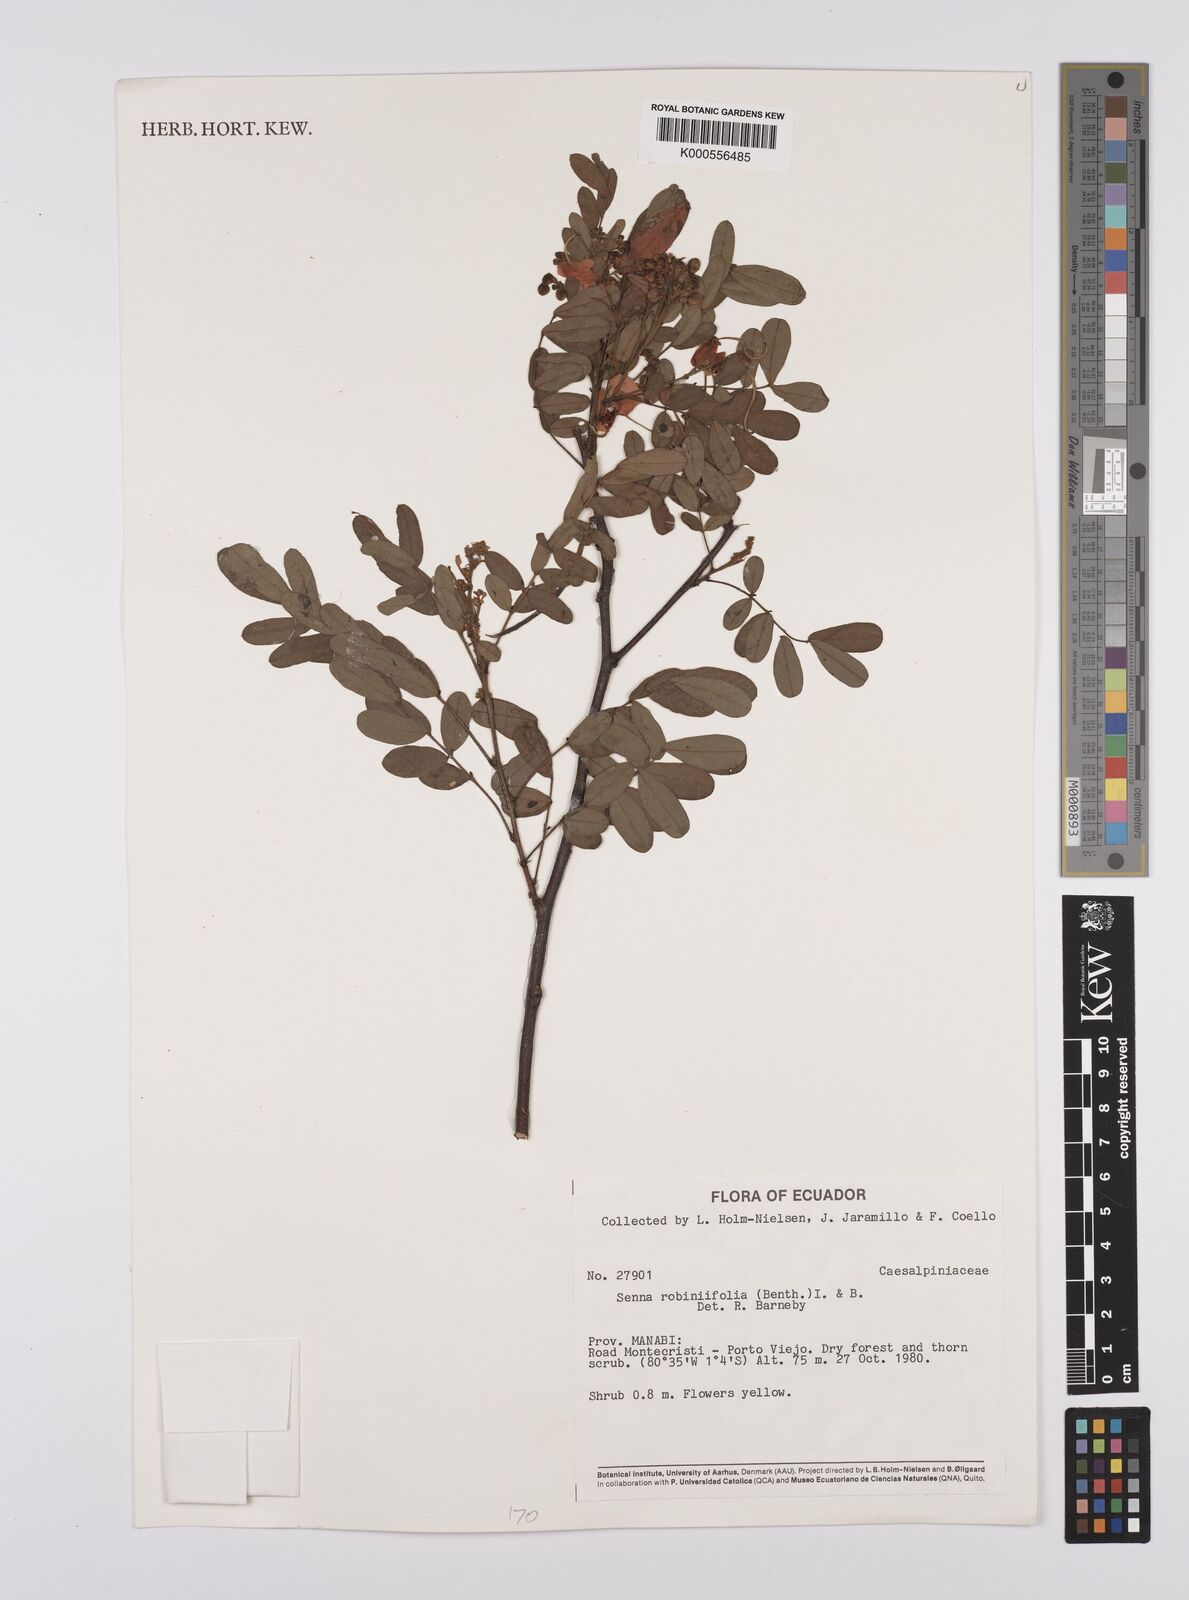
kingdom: Plantae
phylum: Tracheophyta
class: Magnoliopsida
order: Fabales
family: Fabaceae
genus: Senna
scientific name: Senna robiniifolia
